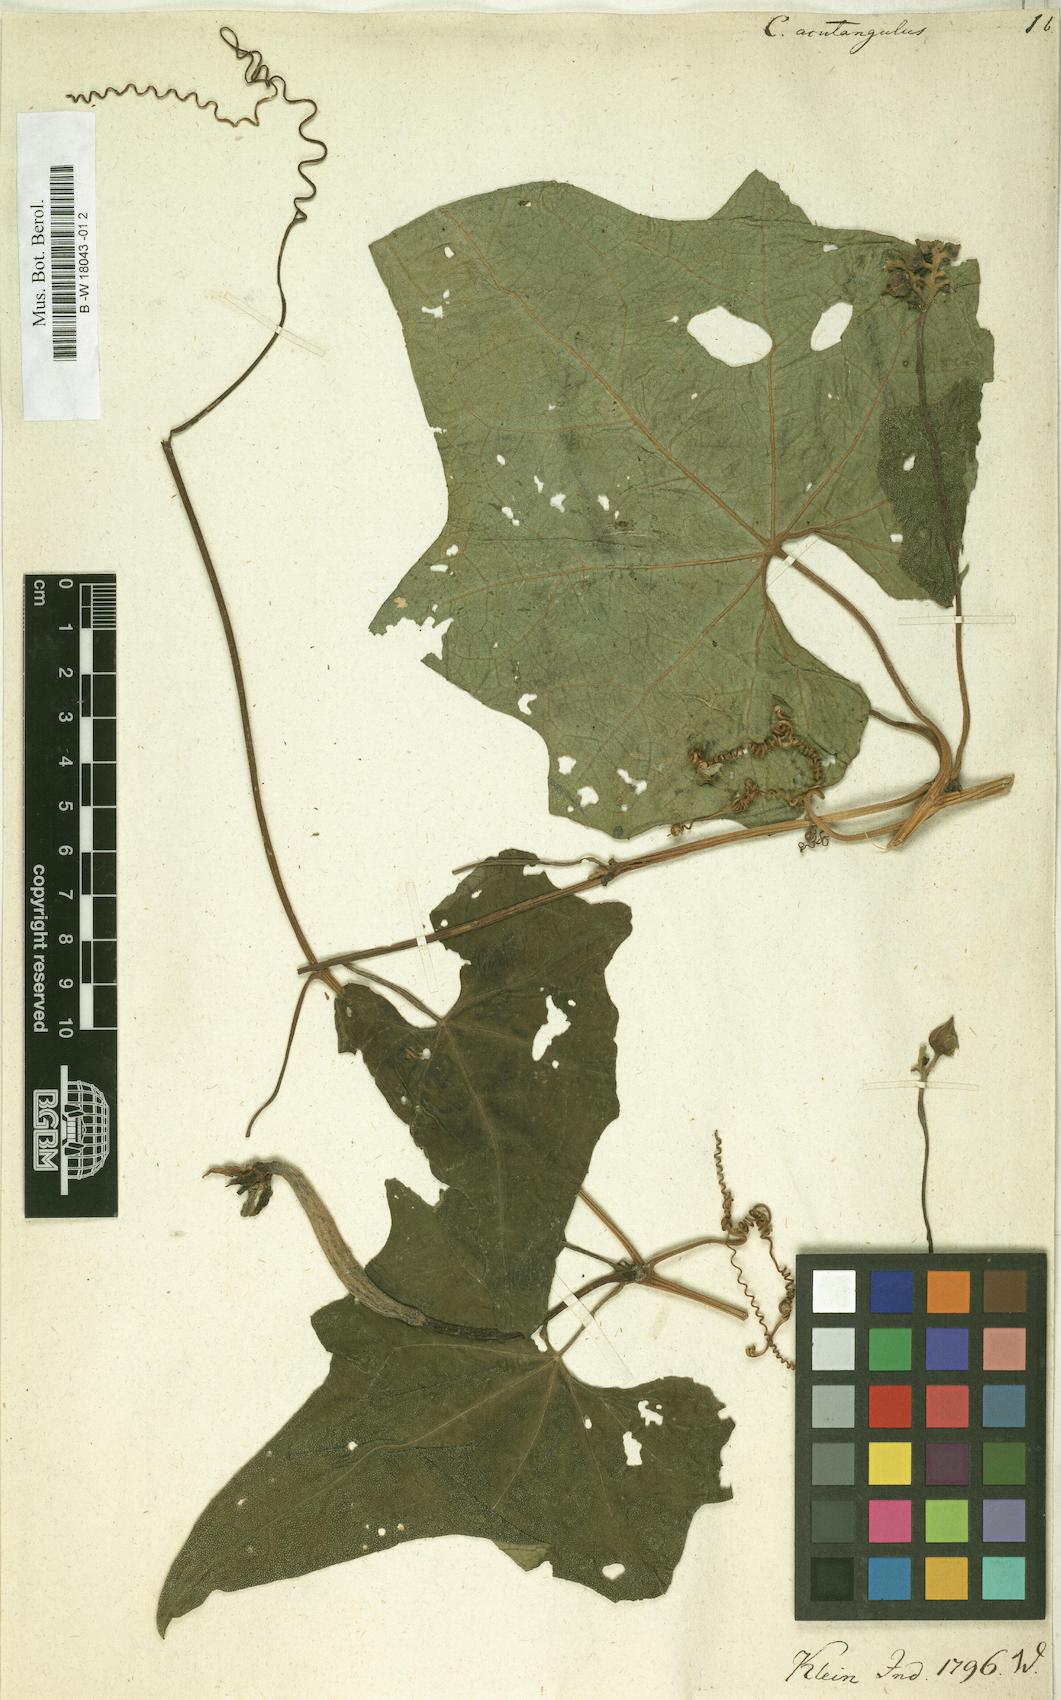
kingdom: Plantae
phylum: Tracheophyta
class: Magnoliopsida
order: Cucurbitales
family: Cucurbitaceae
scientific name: Cucurbitaceae
